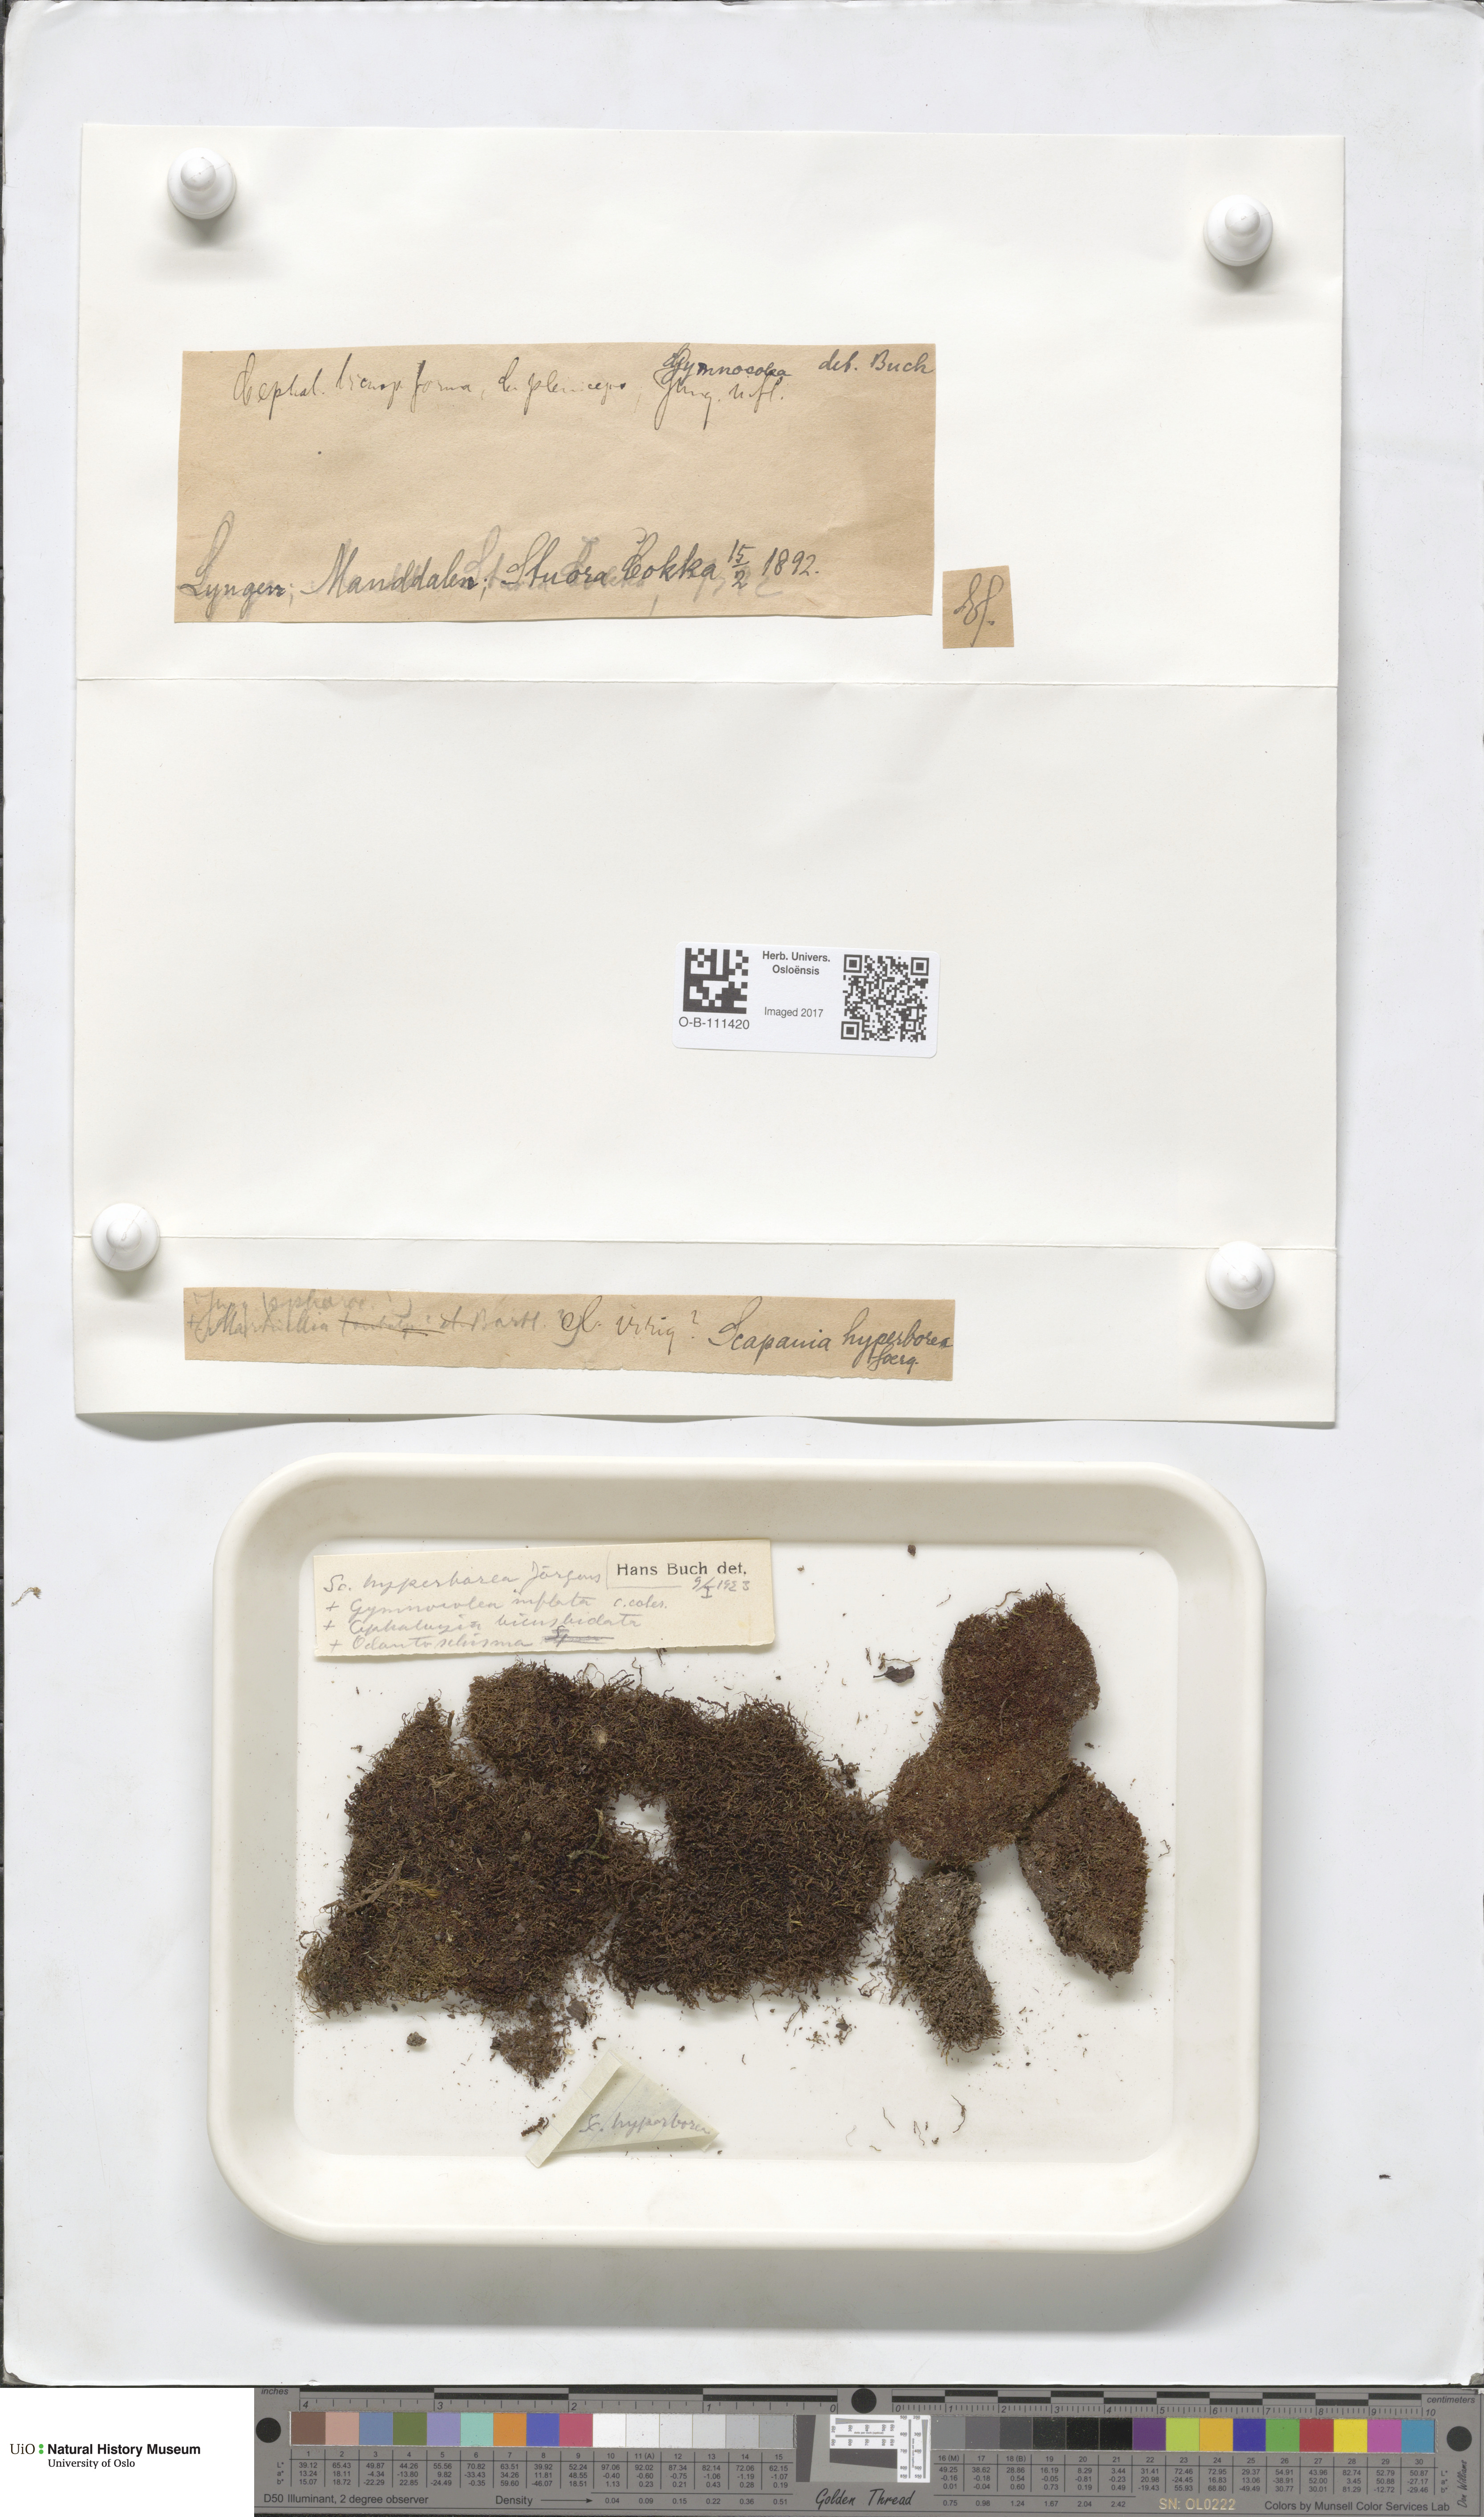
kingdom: Plantae
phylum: Marchantiophyta
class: Jungermanniopsida
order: Jungermanniales
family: Scapaniaceae
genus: Scapania
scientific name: Scapania hyperborea
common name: Northern earwort
